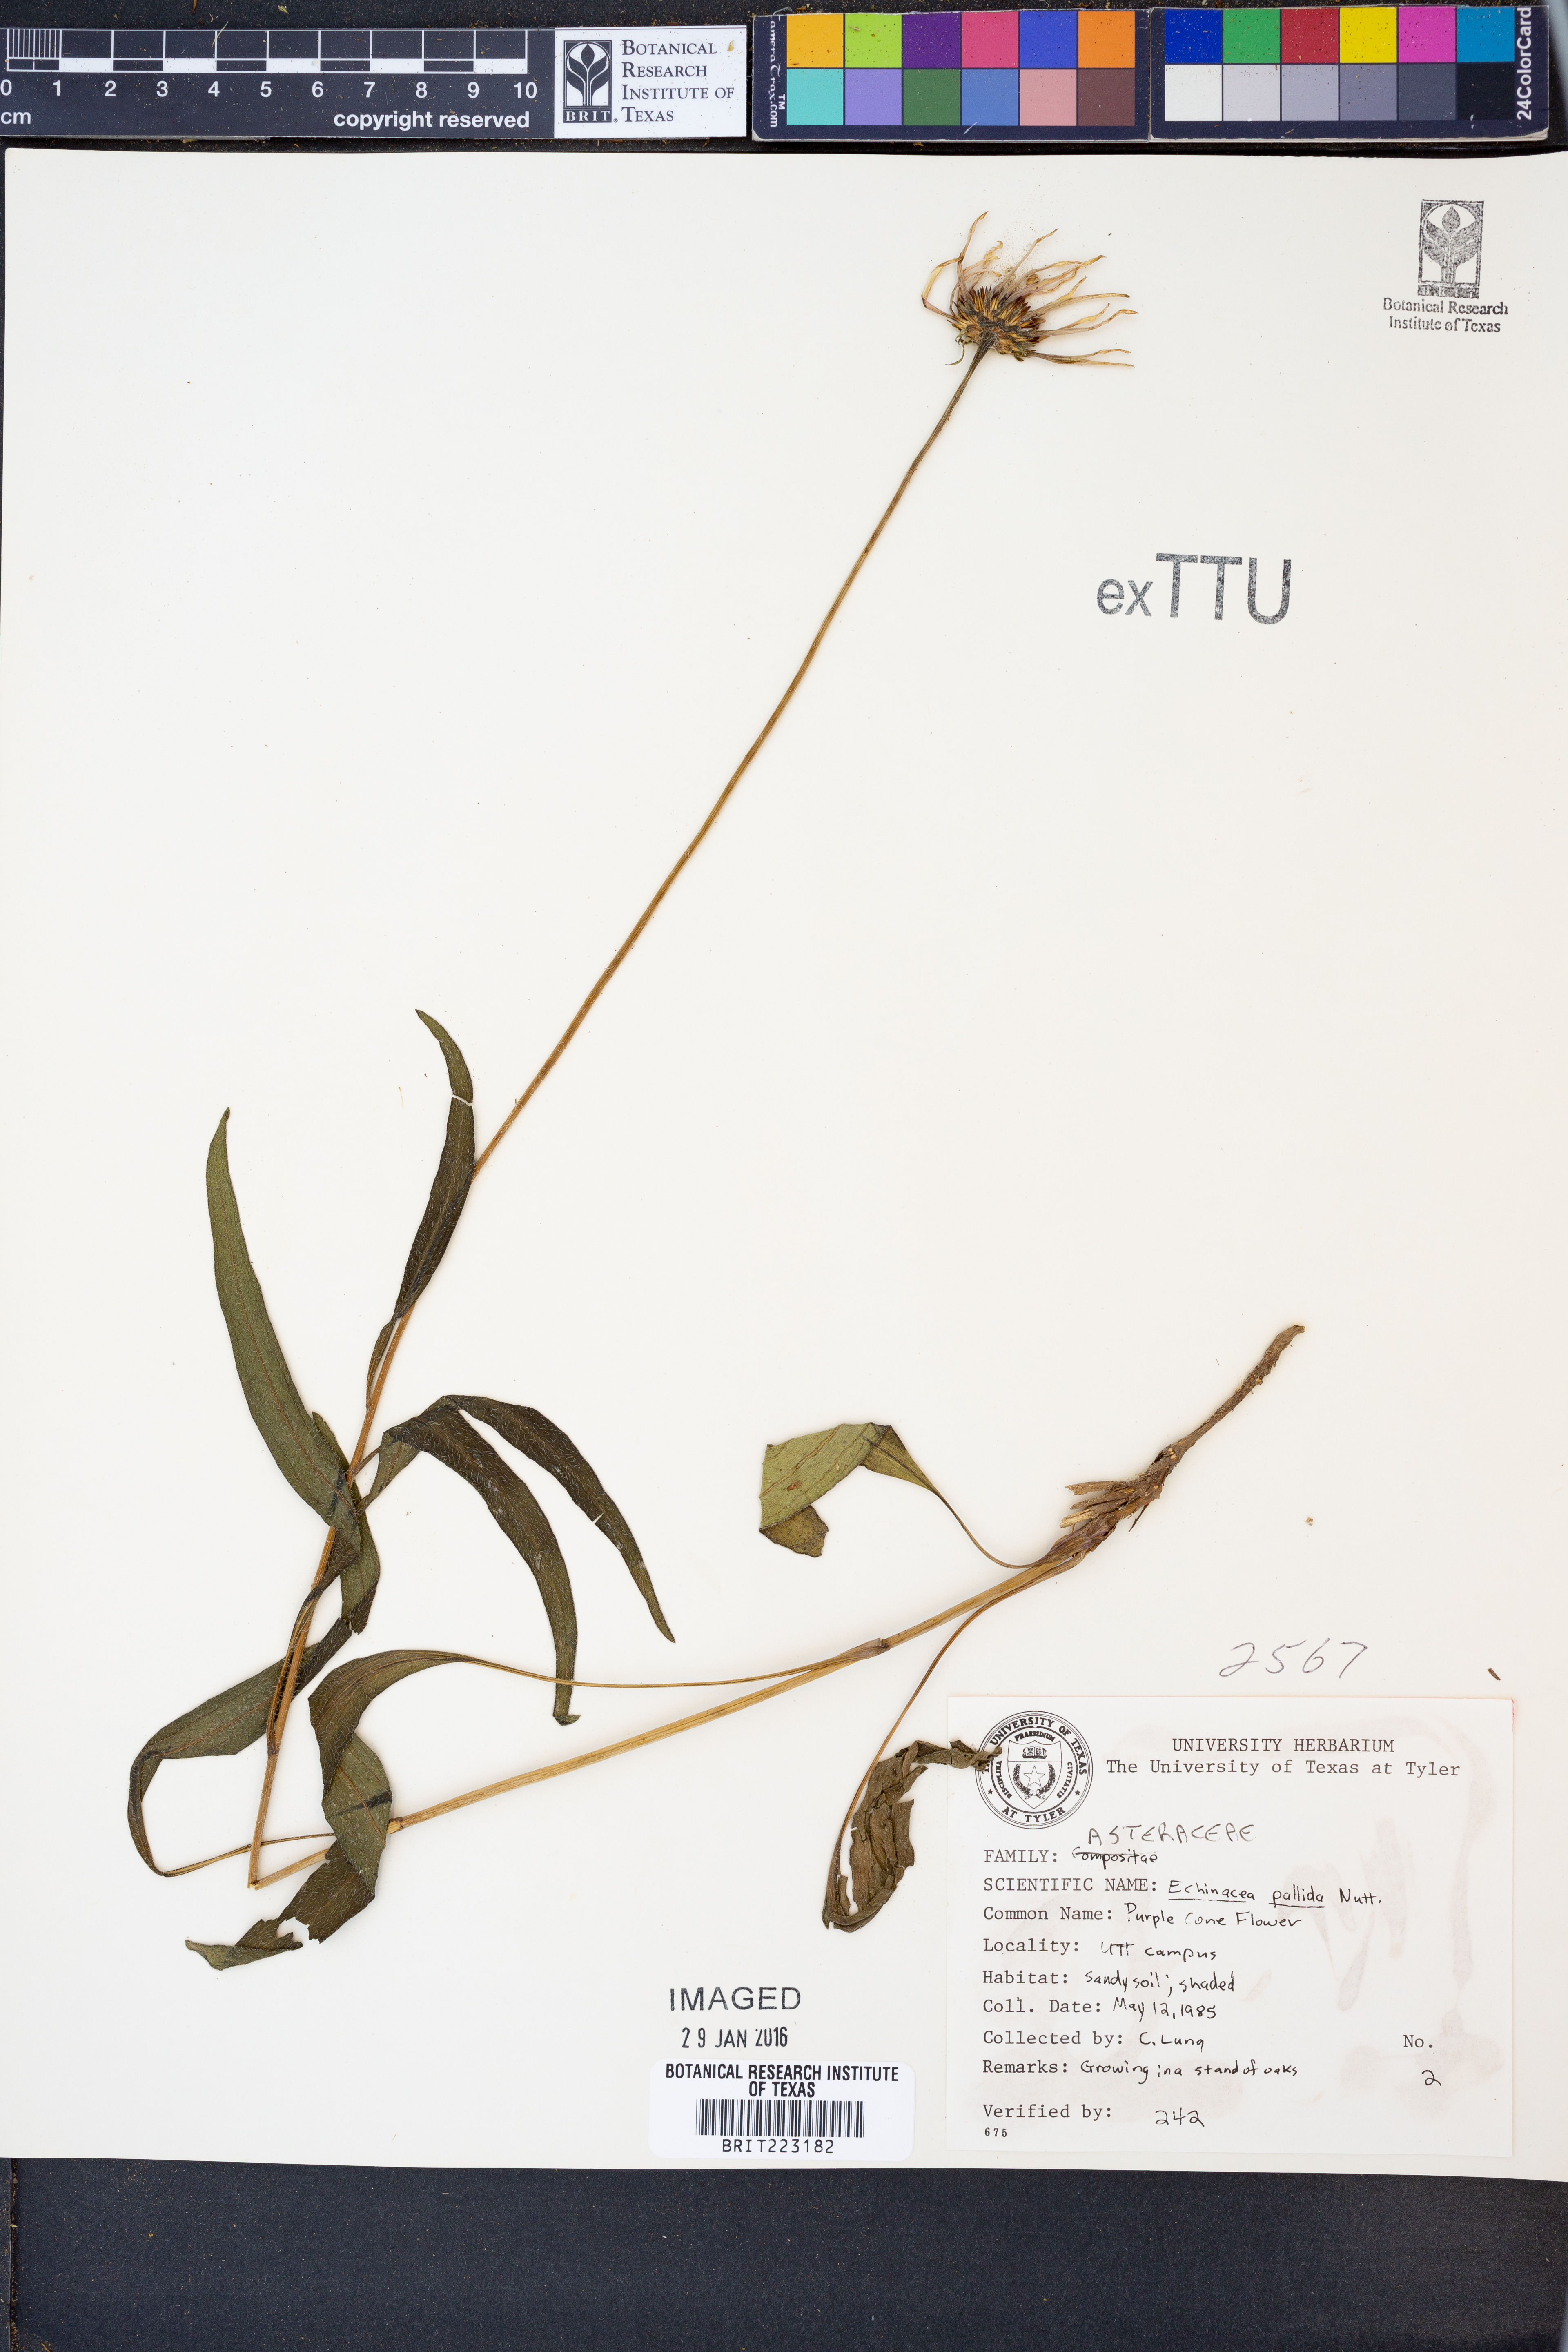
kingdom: Plantae
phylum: Tracheophyta
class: Magnoliopsida
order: Asterales
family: Asteraceae
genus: Echinacea
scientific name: Echinacea pallida
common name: Pale echinacea
